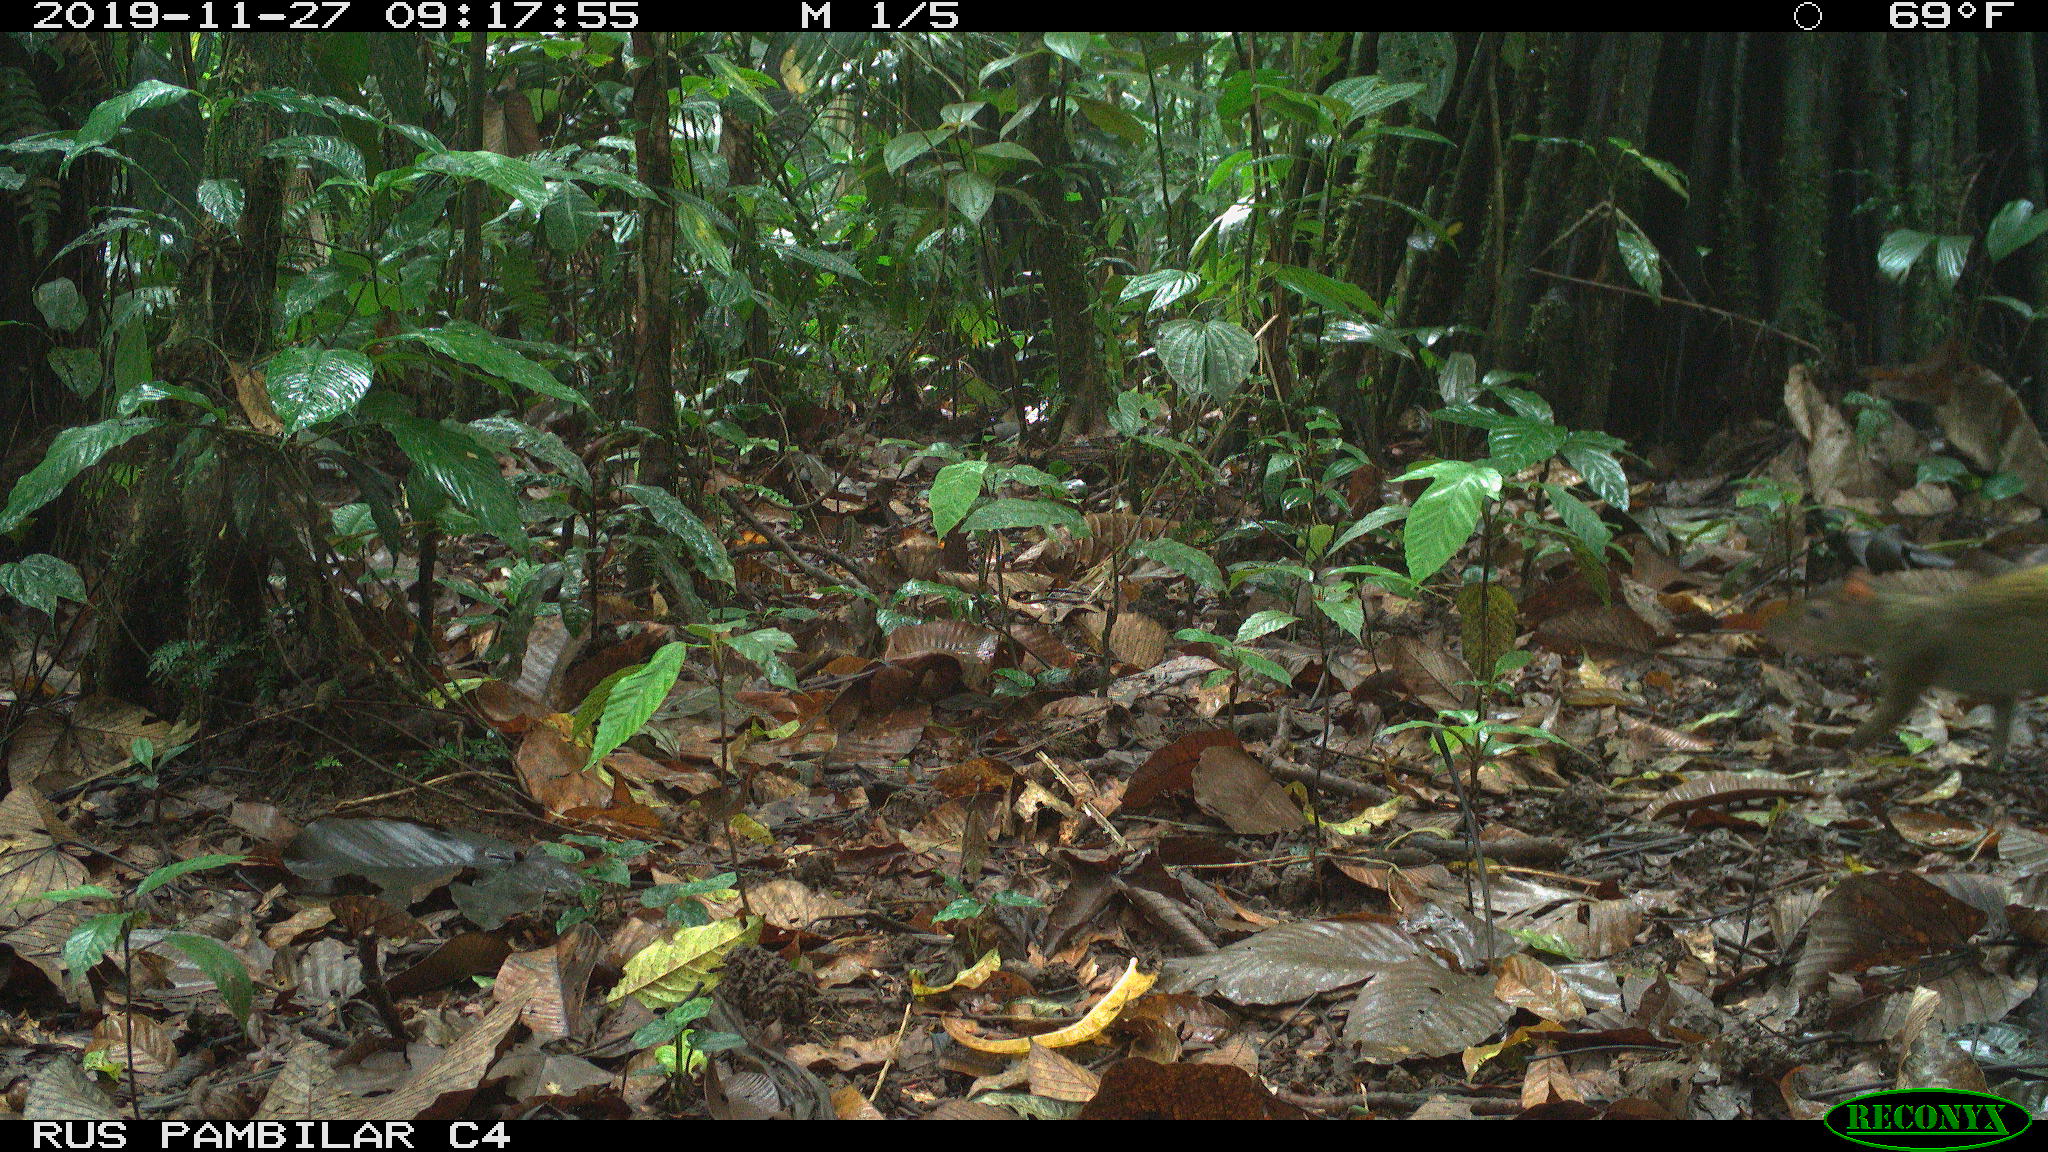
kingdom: Animalia
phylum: Chordata
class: Mammalia
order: Rodentia
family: Dasyproctidae
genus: Dasyprocta
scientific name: Dasyprocta punctata
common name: Central american agouti
